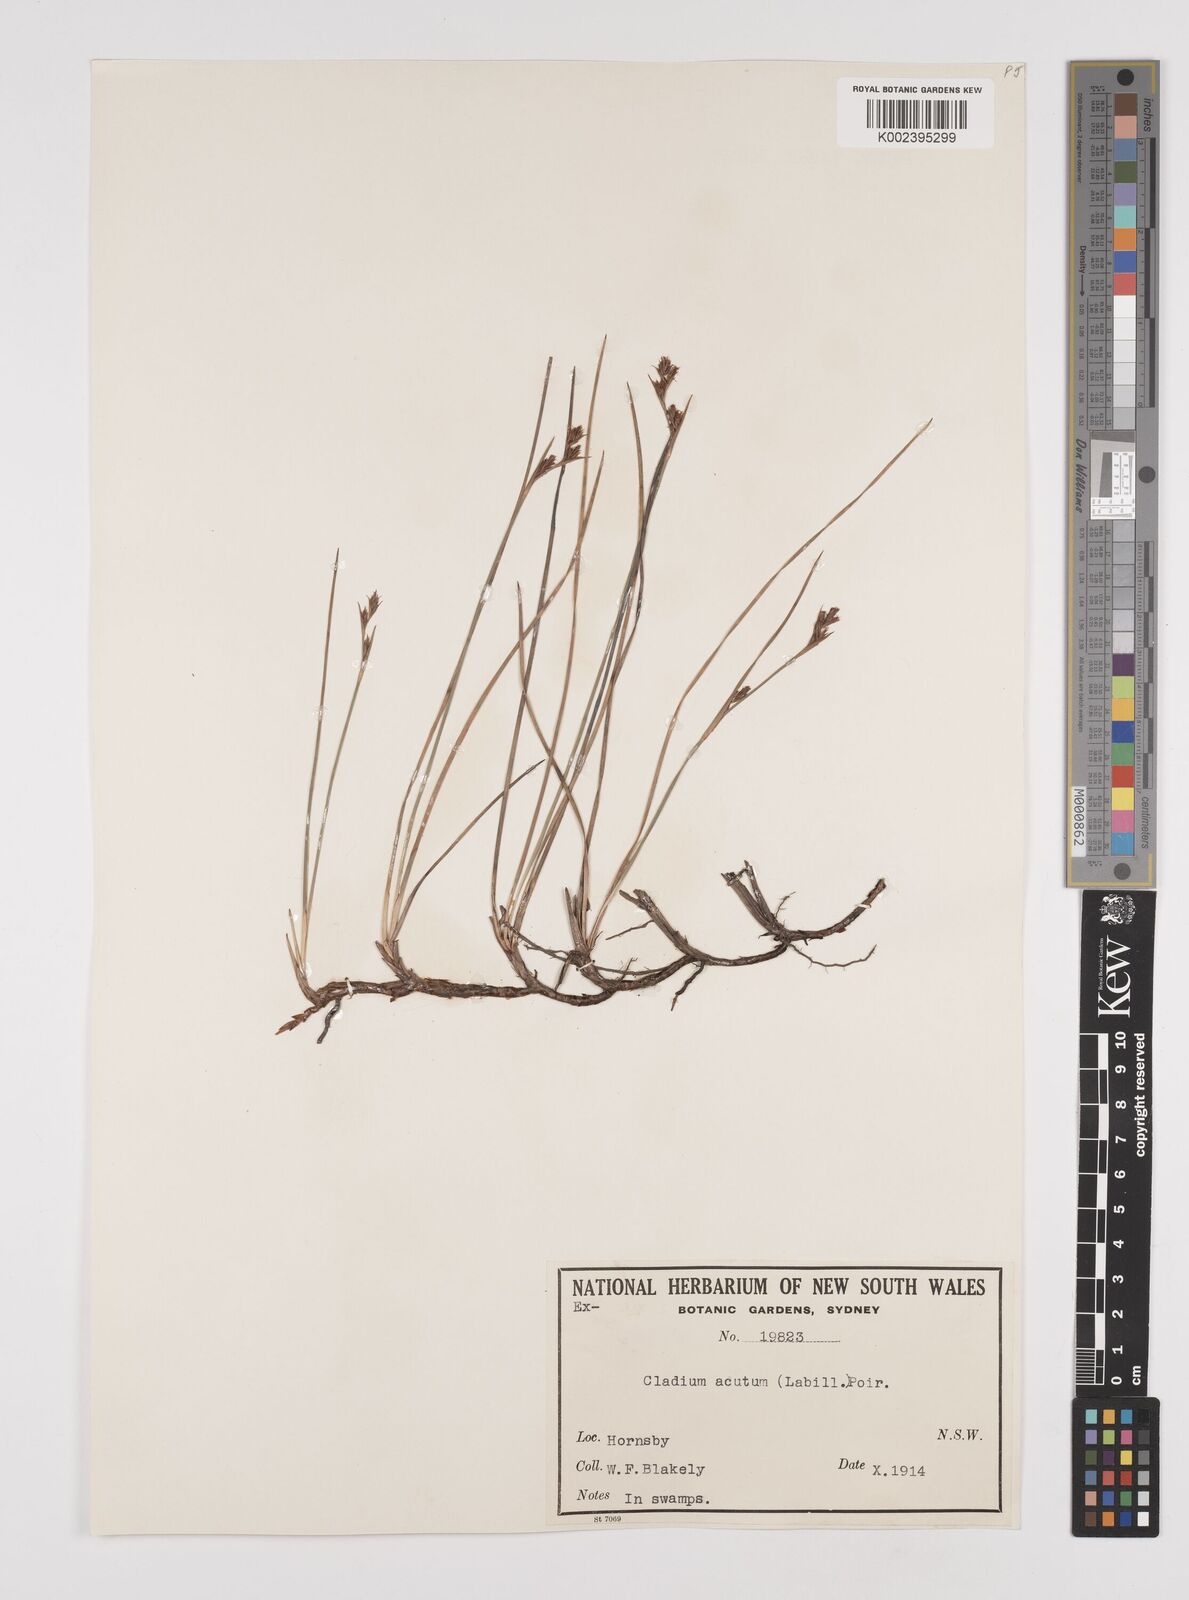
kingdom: Plantae
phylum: Tracheophyta
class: Liliopsida
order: Poales
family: Cyperaceae
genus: Machaerina
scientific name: Machaerina acuta
